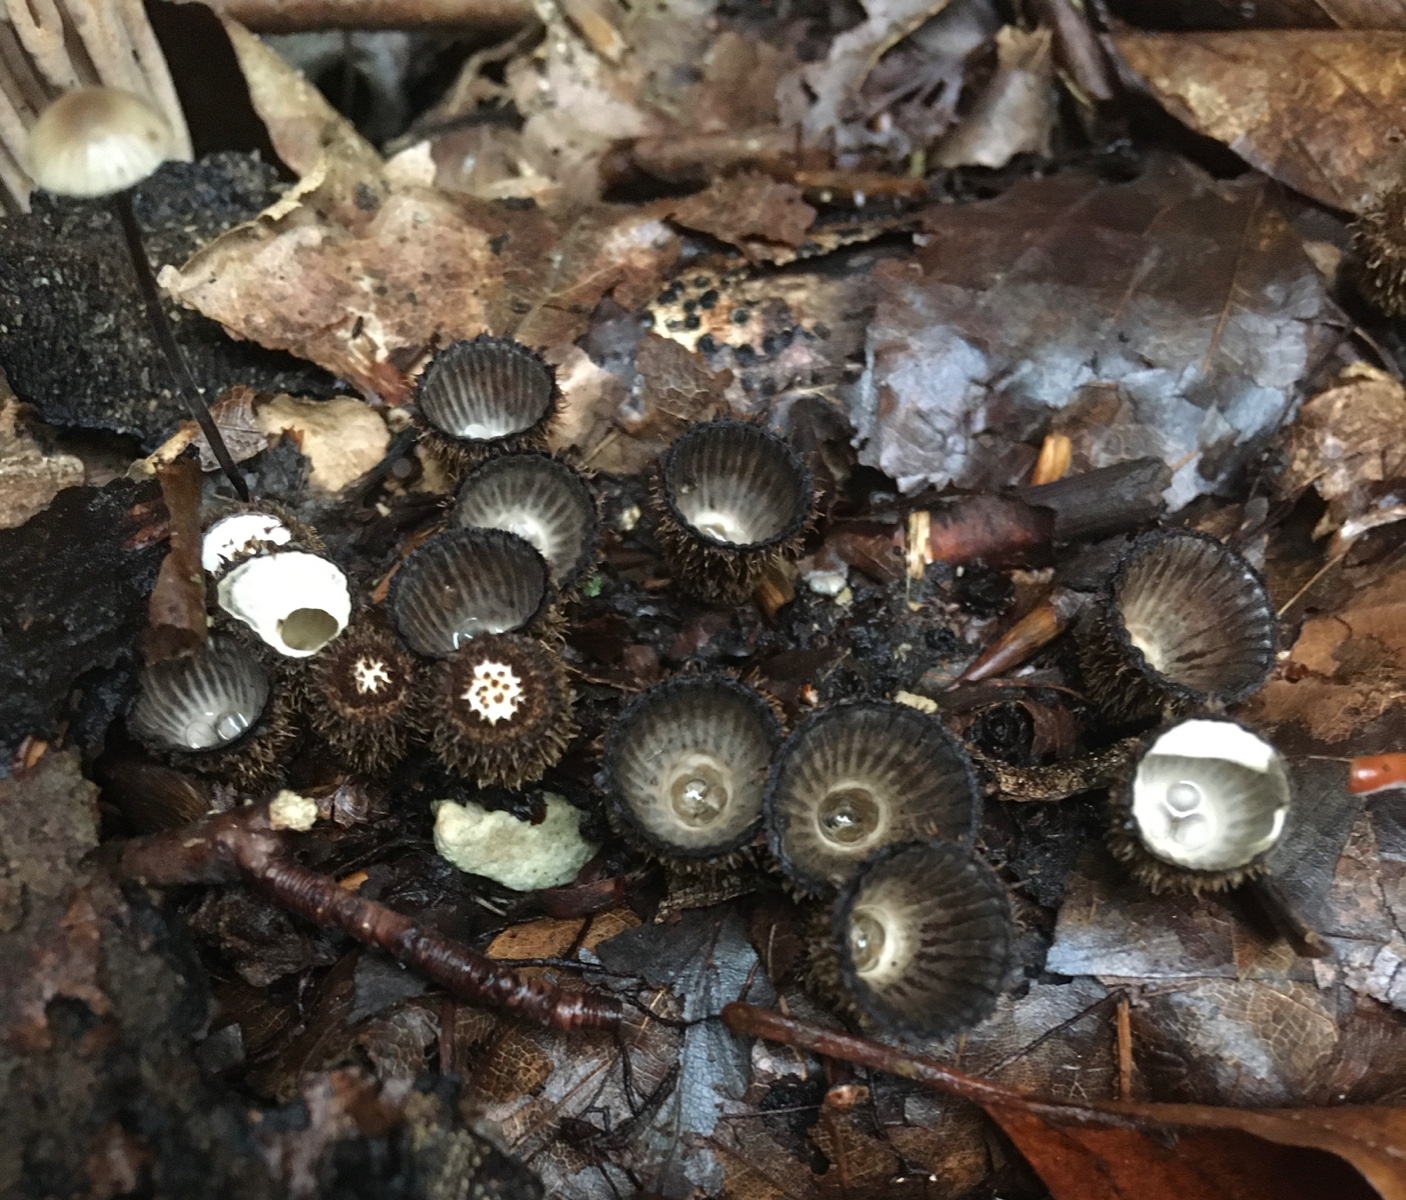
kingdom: Fungi
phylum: Basidiomycota
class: Agaricomycetes
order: Agaricales
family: Agaricaceae
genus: Cyathus
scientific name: Cyathus striatus
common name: stribet redesvamp
